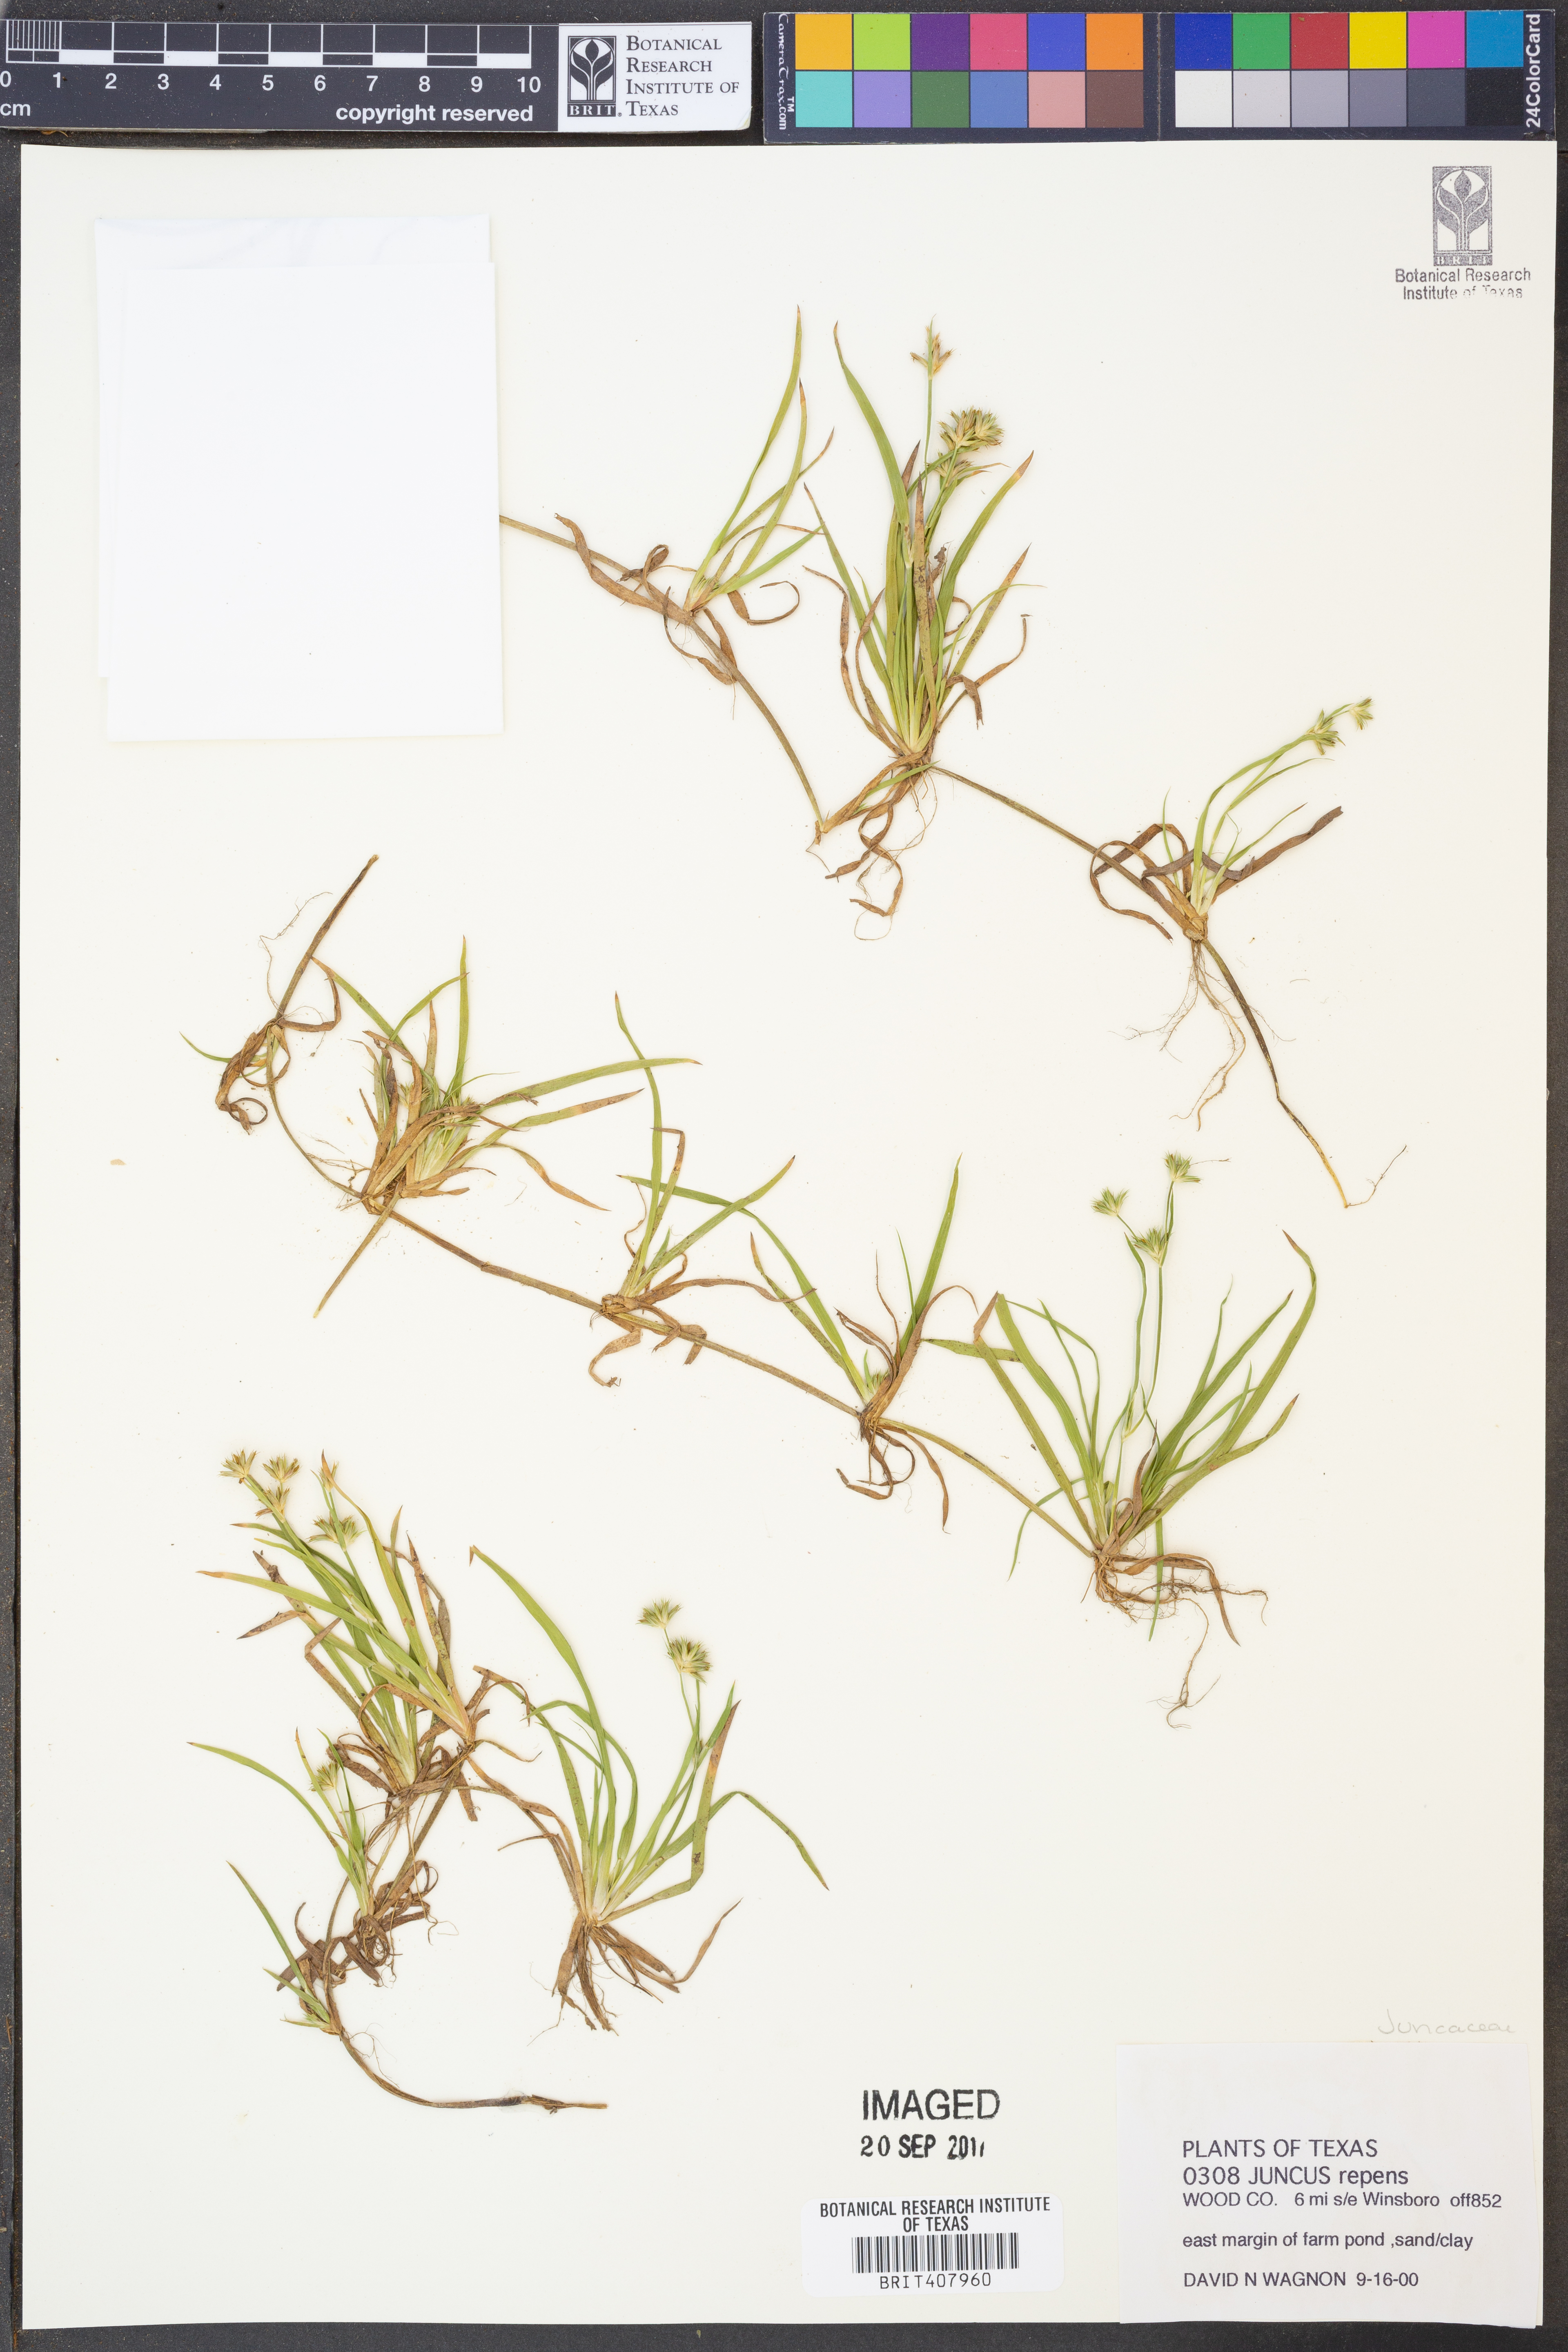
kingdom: Plantae
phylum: Tracheophyta
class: Liliopsida
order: Poales
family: Juncaceae
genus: Juncus
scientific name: Juncus repens
